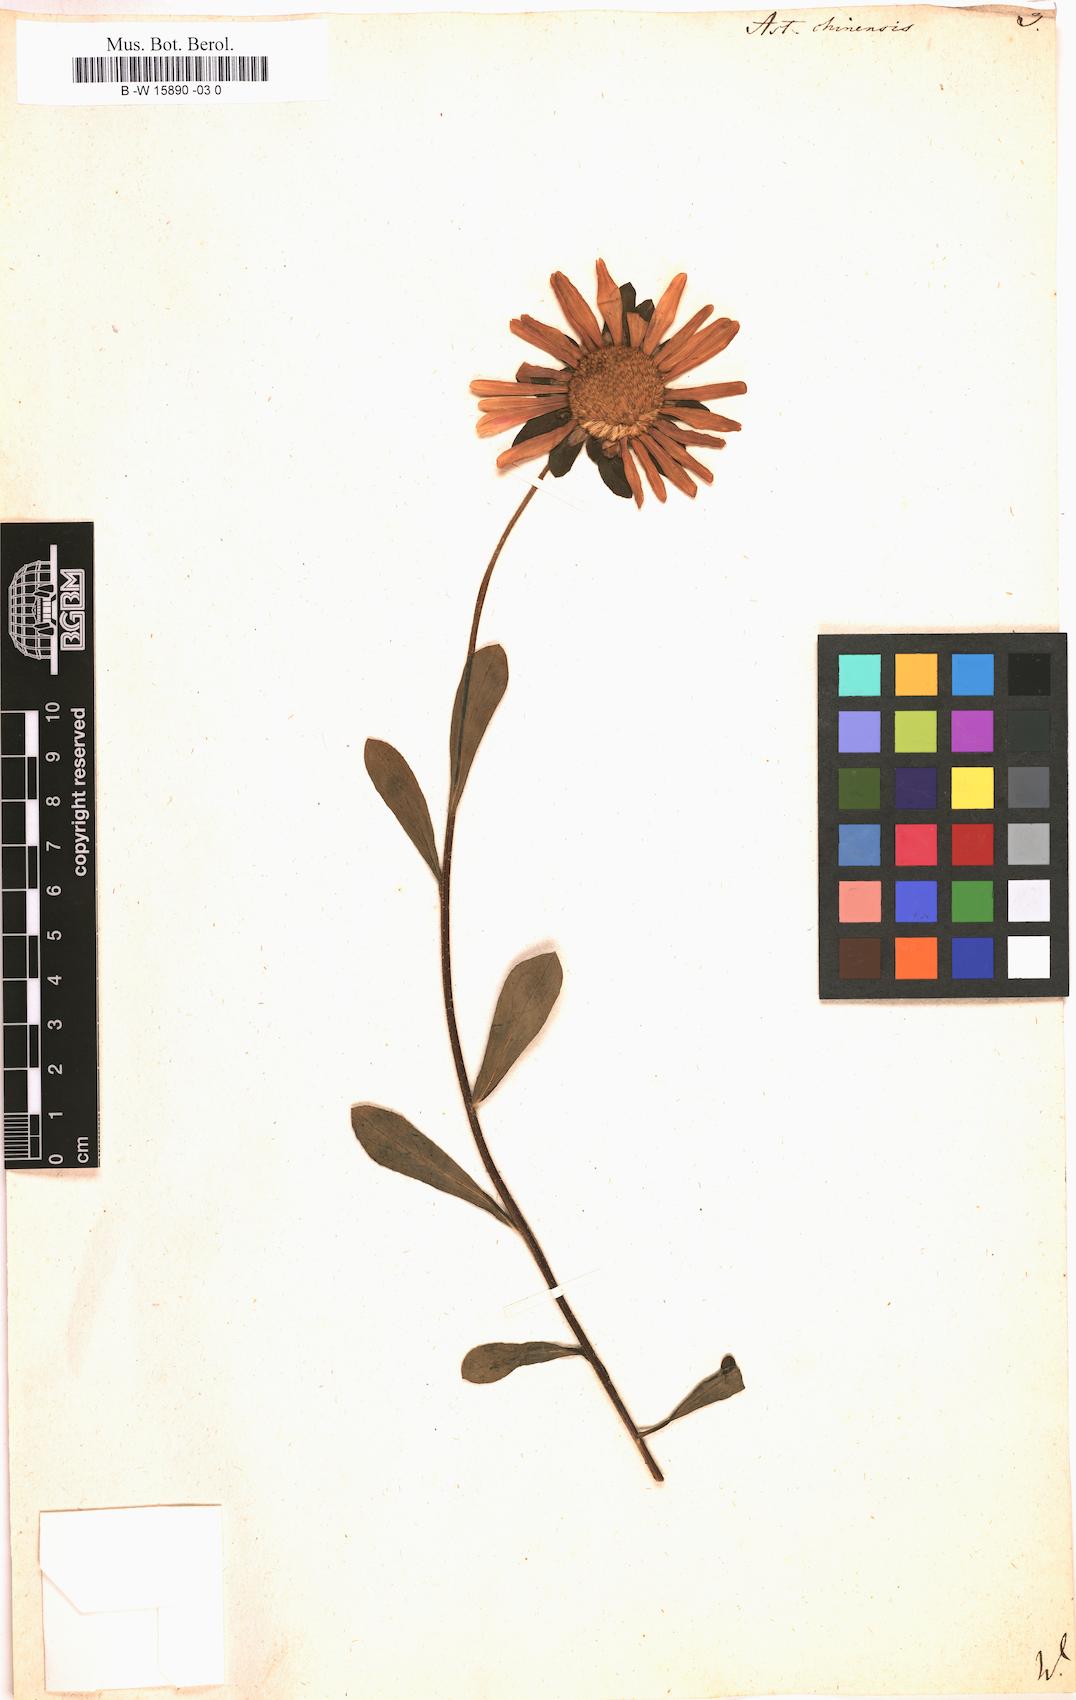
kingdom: Plantae
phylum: Tracheophyta
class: Magnoliopsida
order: Asterales
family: Asteraceae
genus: Callistephus
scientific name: Callistephus chinensis
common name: China aster
